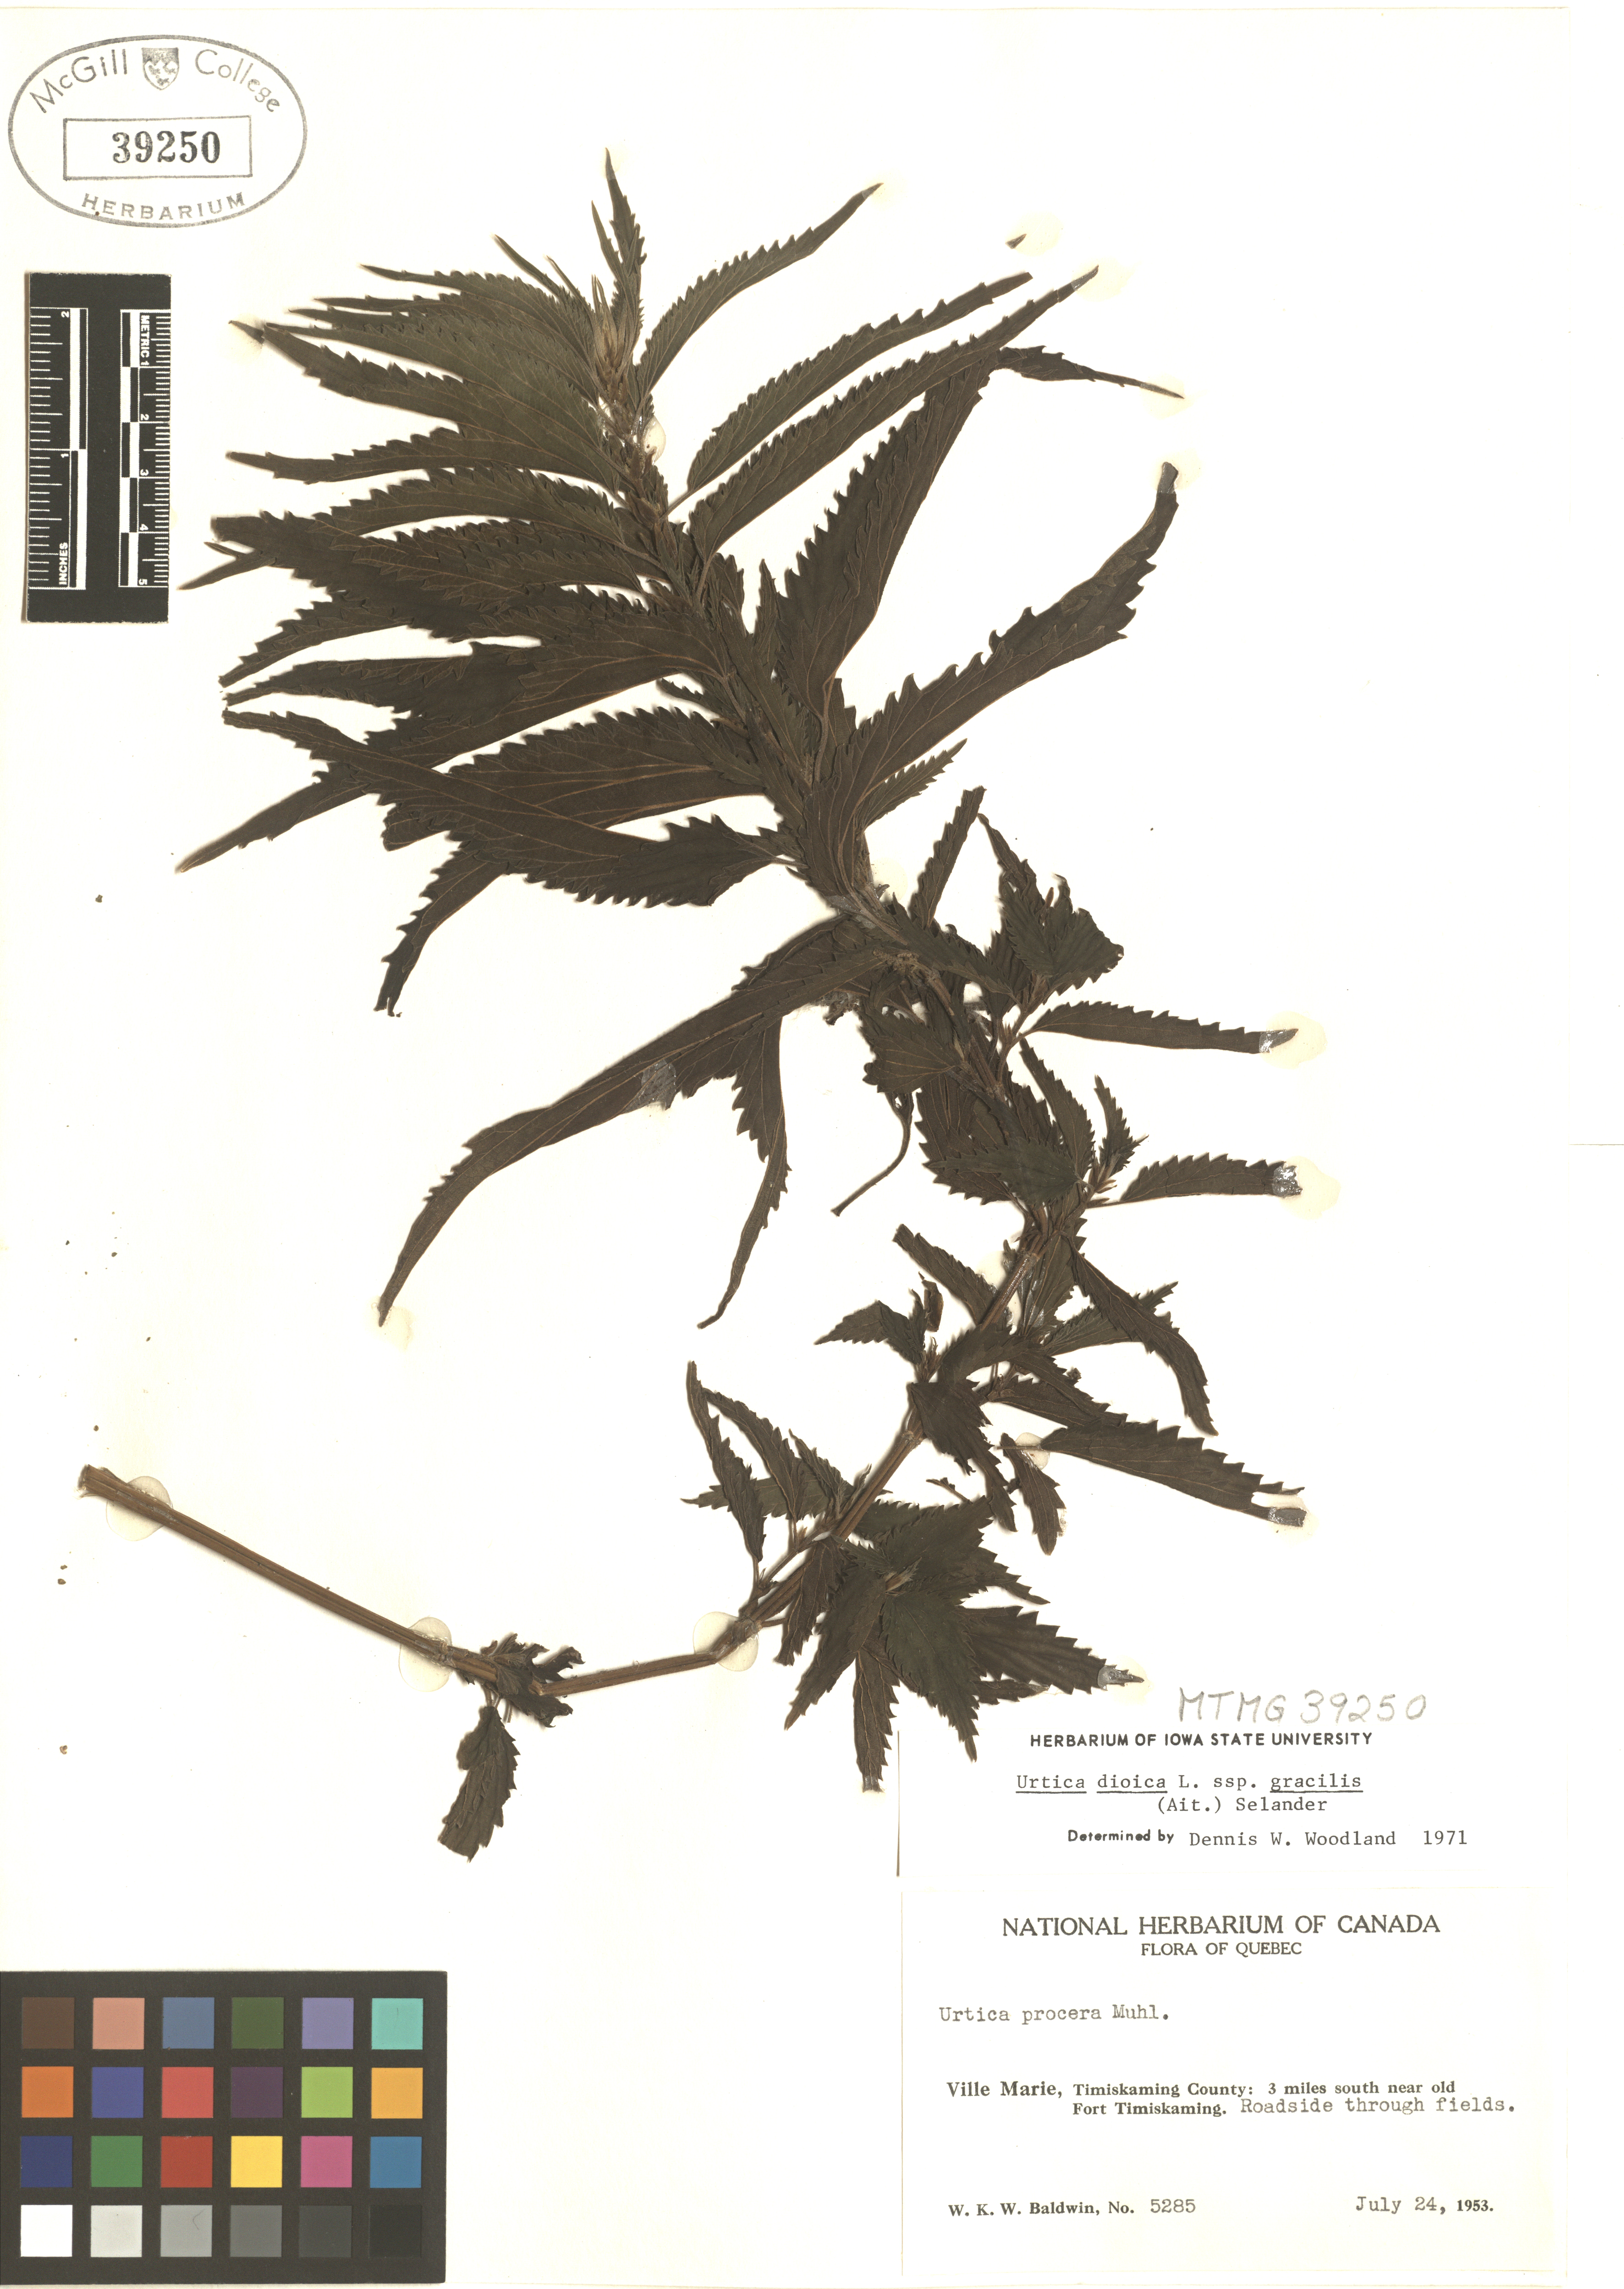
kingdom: Plantae
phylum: Tracheophyta
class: Magnoliopsida
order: Rosales
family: Urticaceae
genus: Urtica
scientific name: Urtica gracilis
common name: Slender stinging nettle
